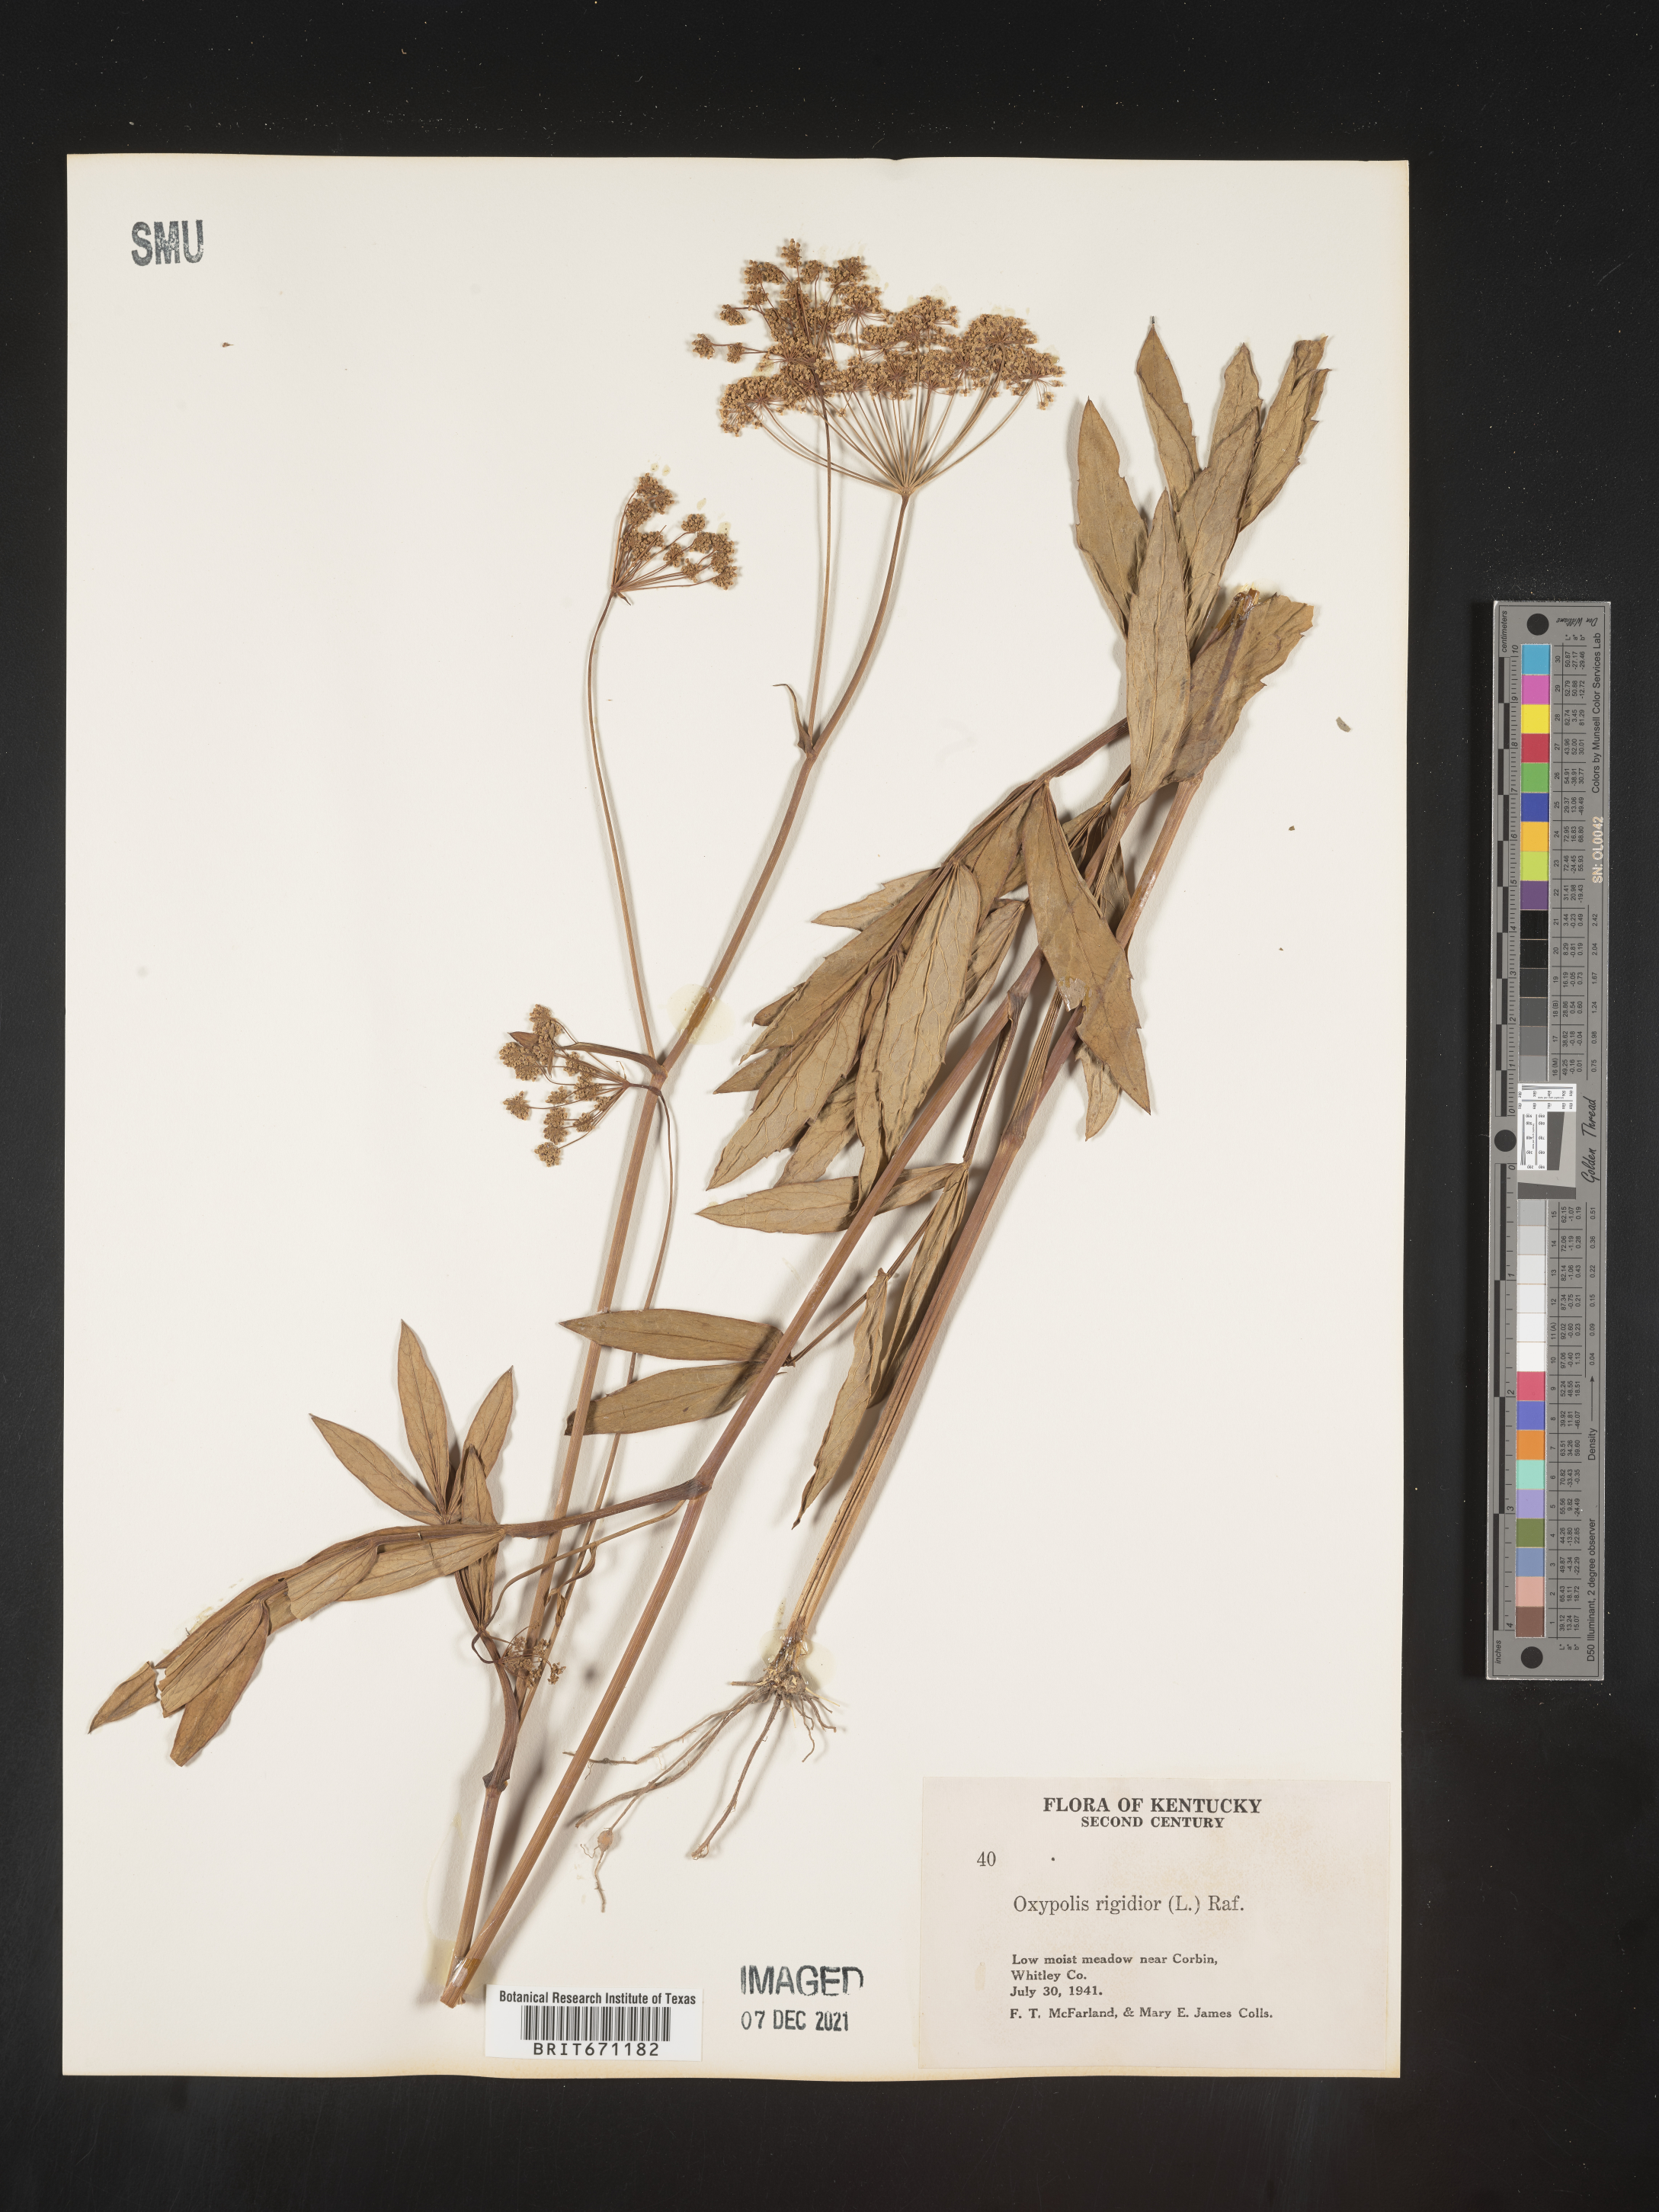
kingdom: Plantae
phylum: Tracheophyta
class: Magnoliopsida
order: Apiales
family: Apiaceae
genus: Oxypolis
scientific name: Oxypolis rigidior
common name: Cowbane
